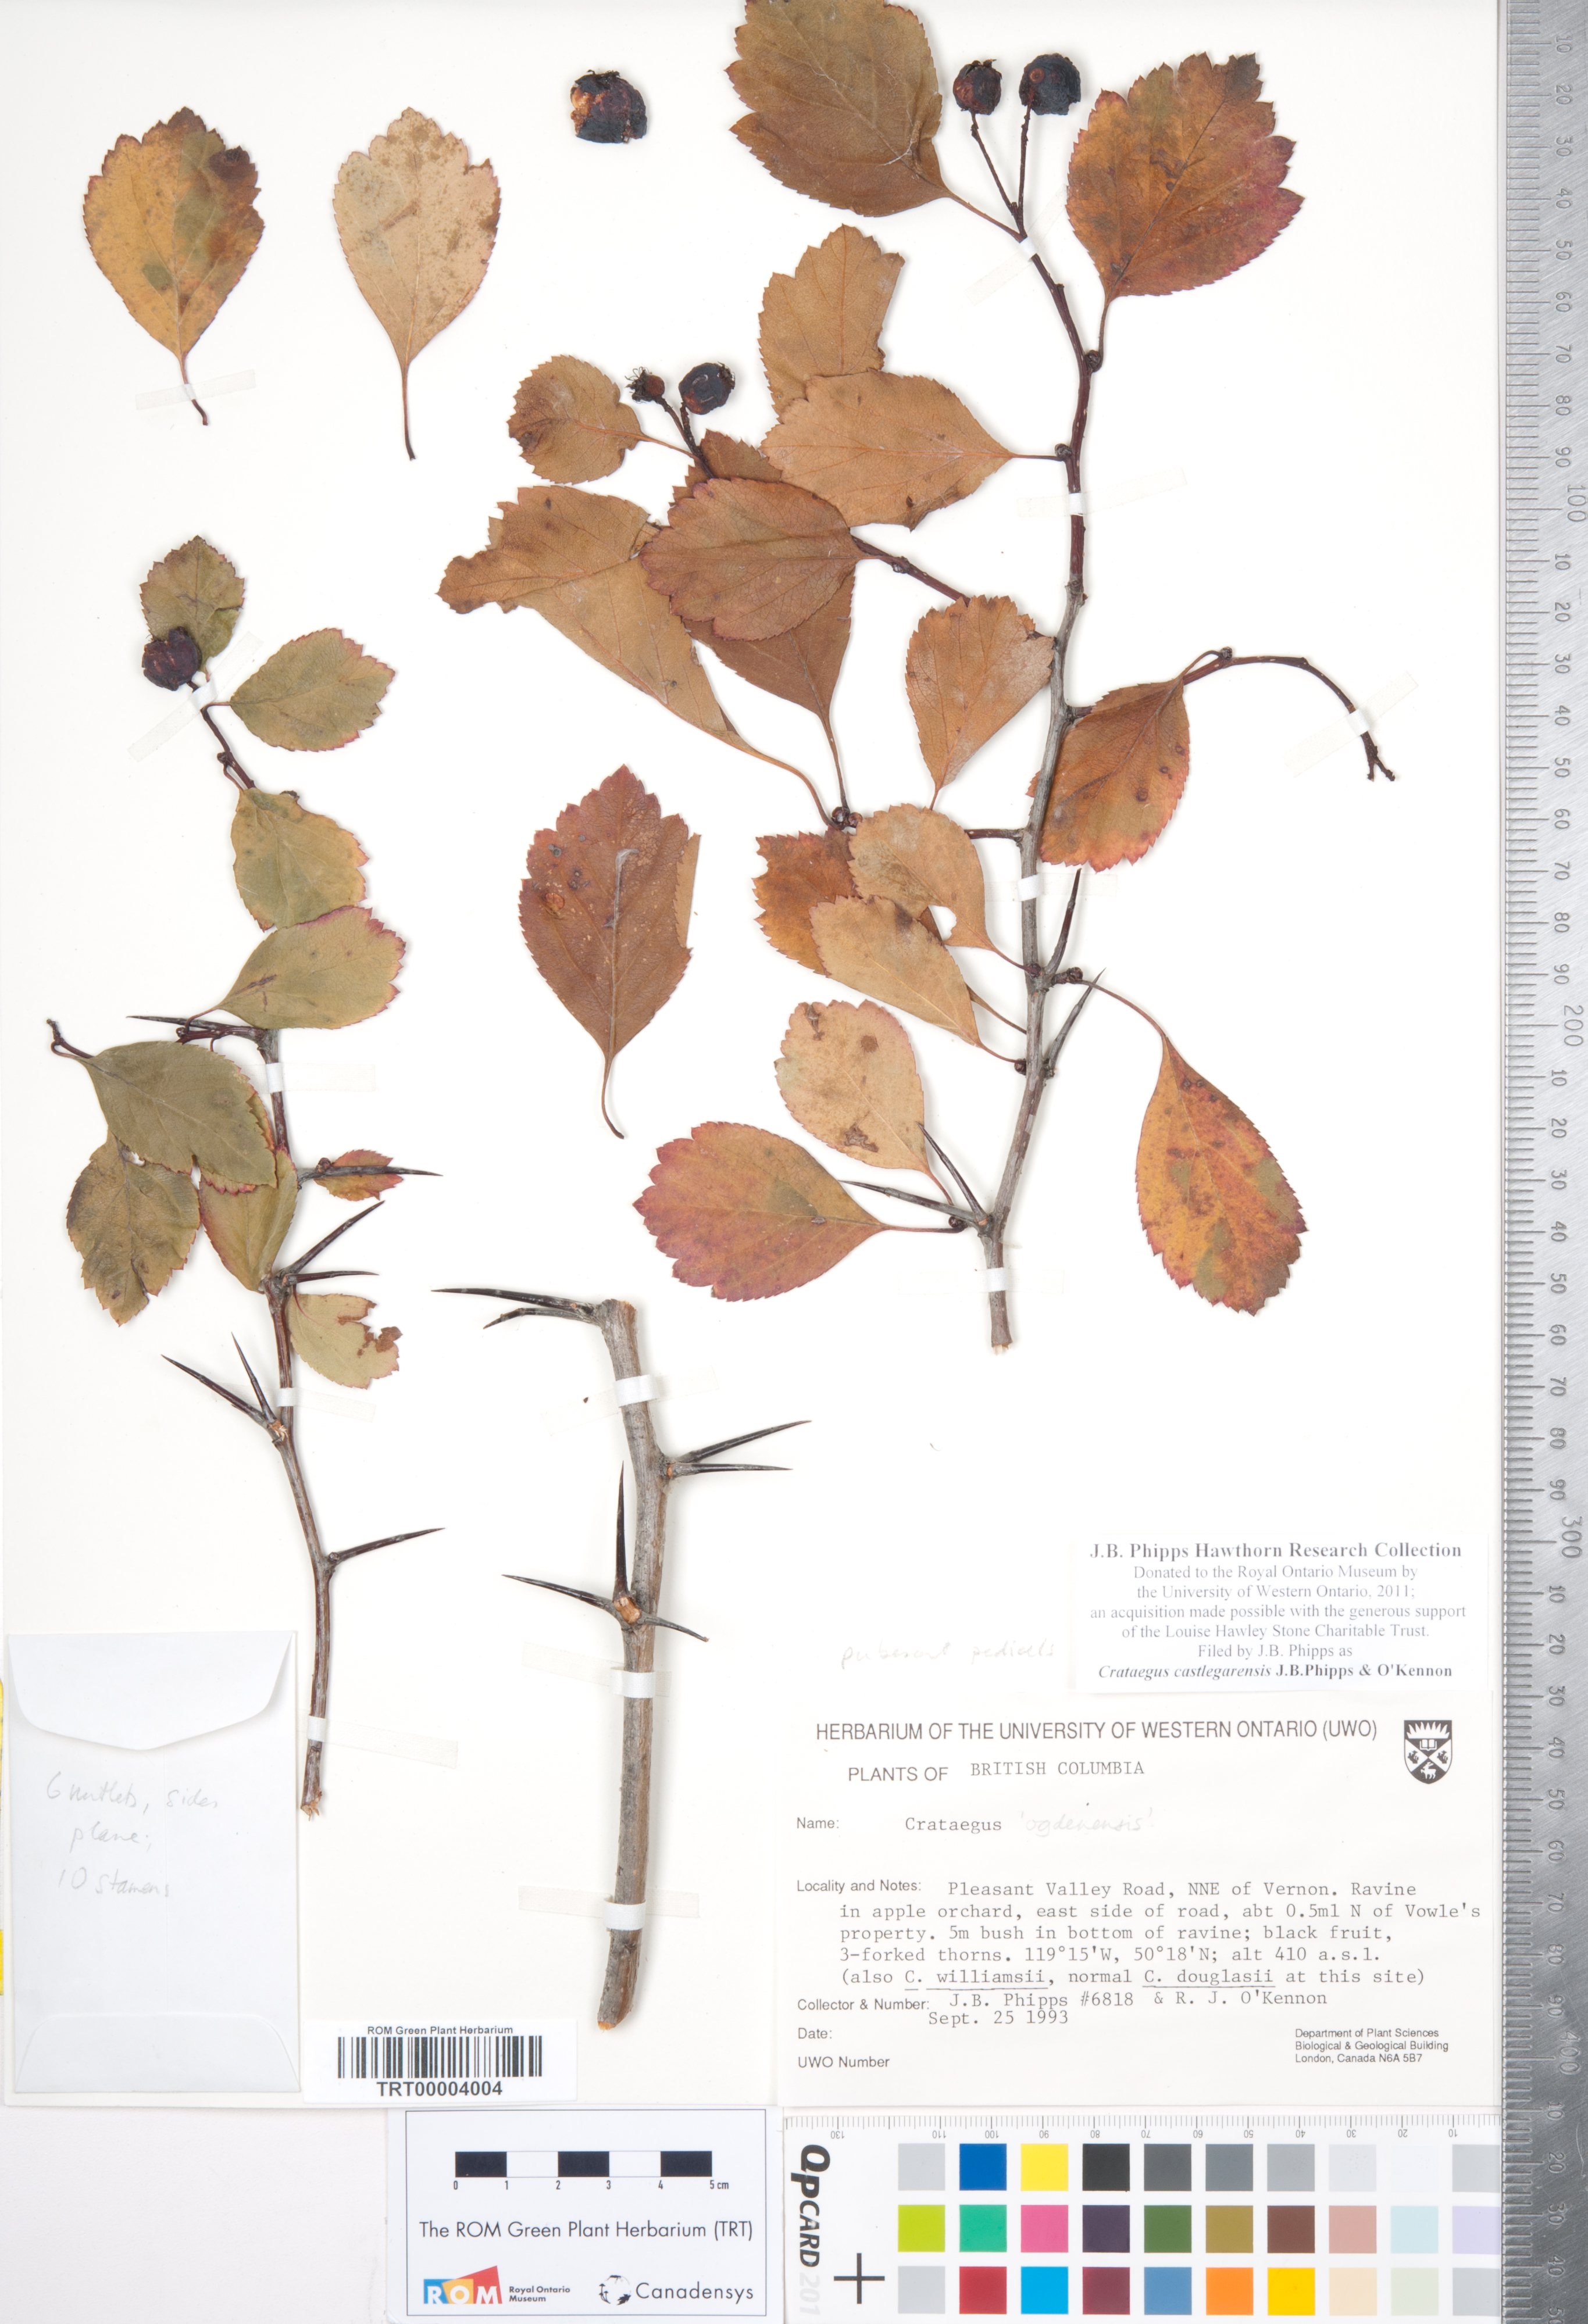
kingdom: Plantae
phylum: Tracheophyta
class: Magnoliopsida
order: Rosales
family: Rosaceae
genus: Crataegus
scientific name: Crataegus castlegarensis
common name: Castlegar hawthorn
